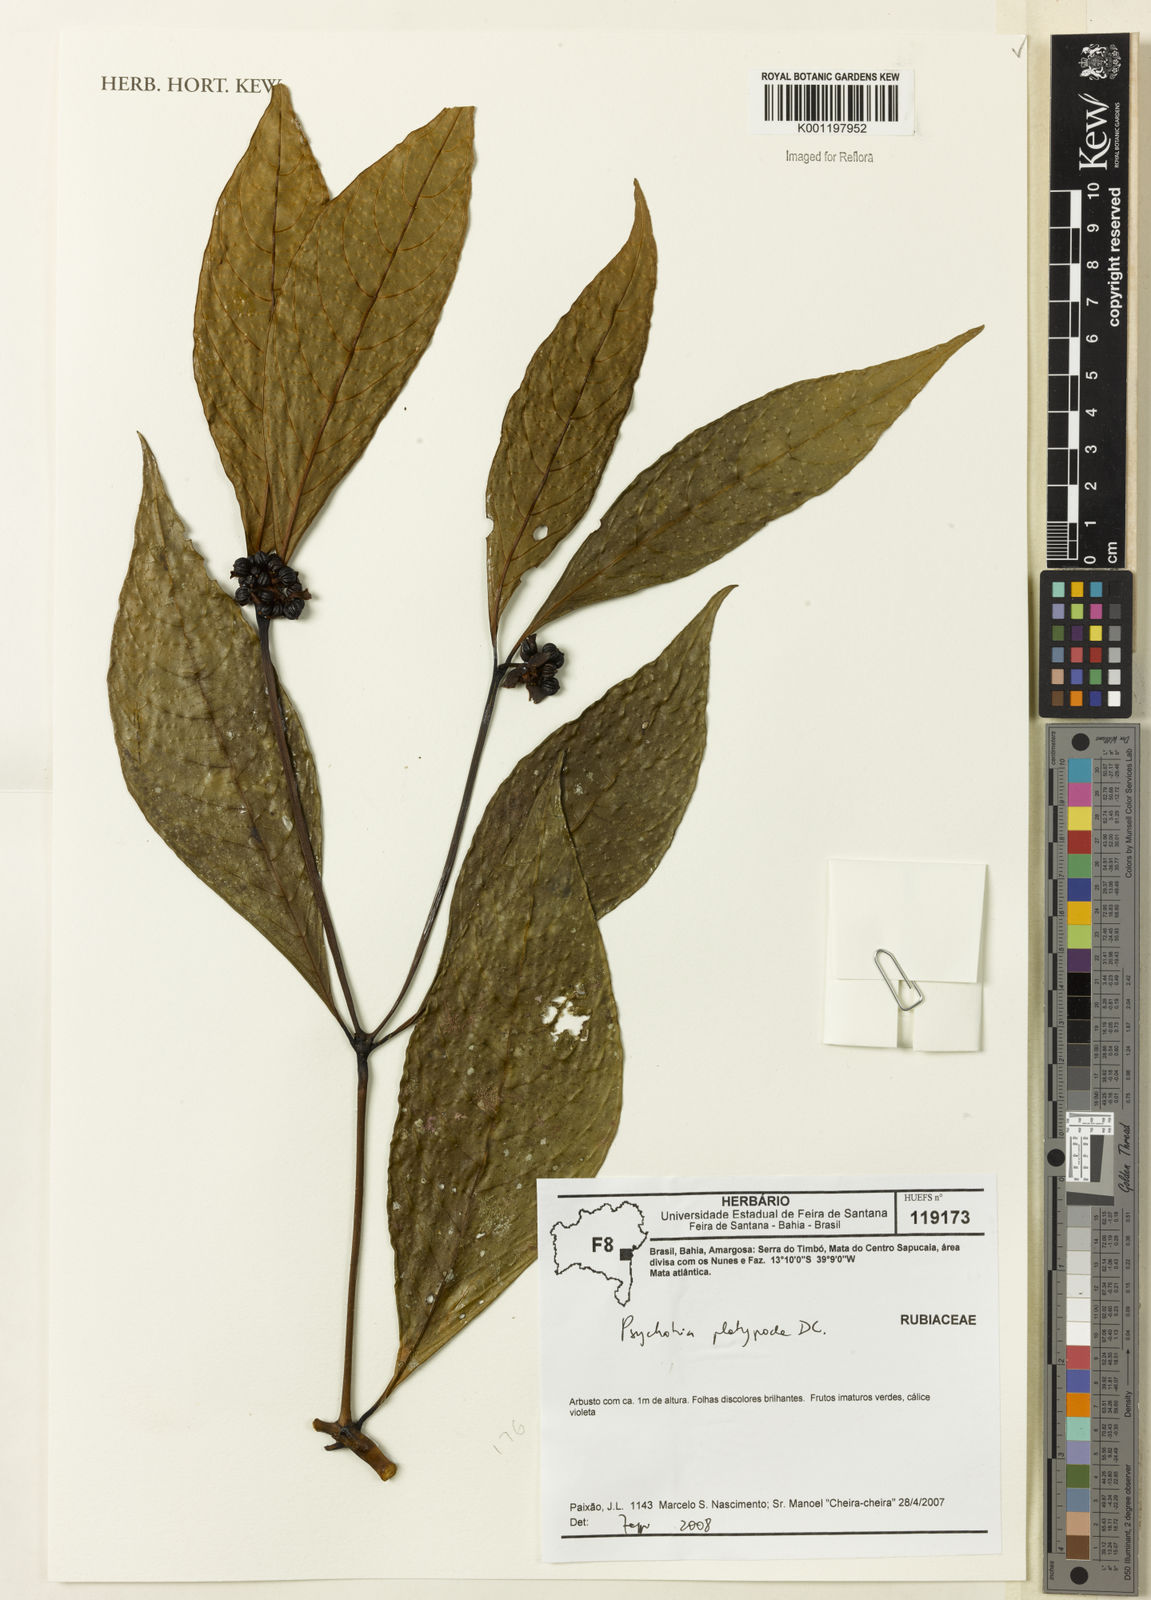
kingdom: Plantae
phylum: Tracheophyta
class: Magnoliopsida
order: Gentianales
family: Rubiaceae
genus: Palicourea
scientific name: Palicourea dichotoma
